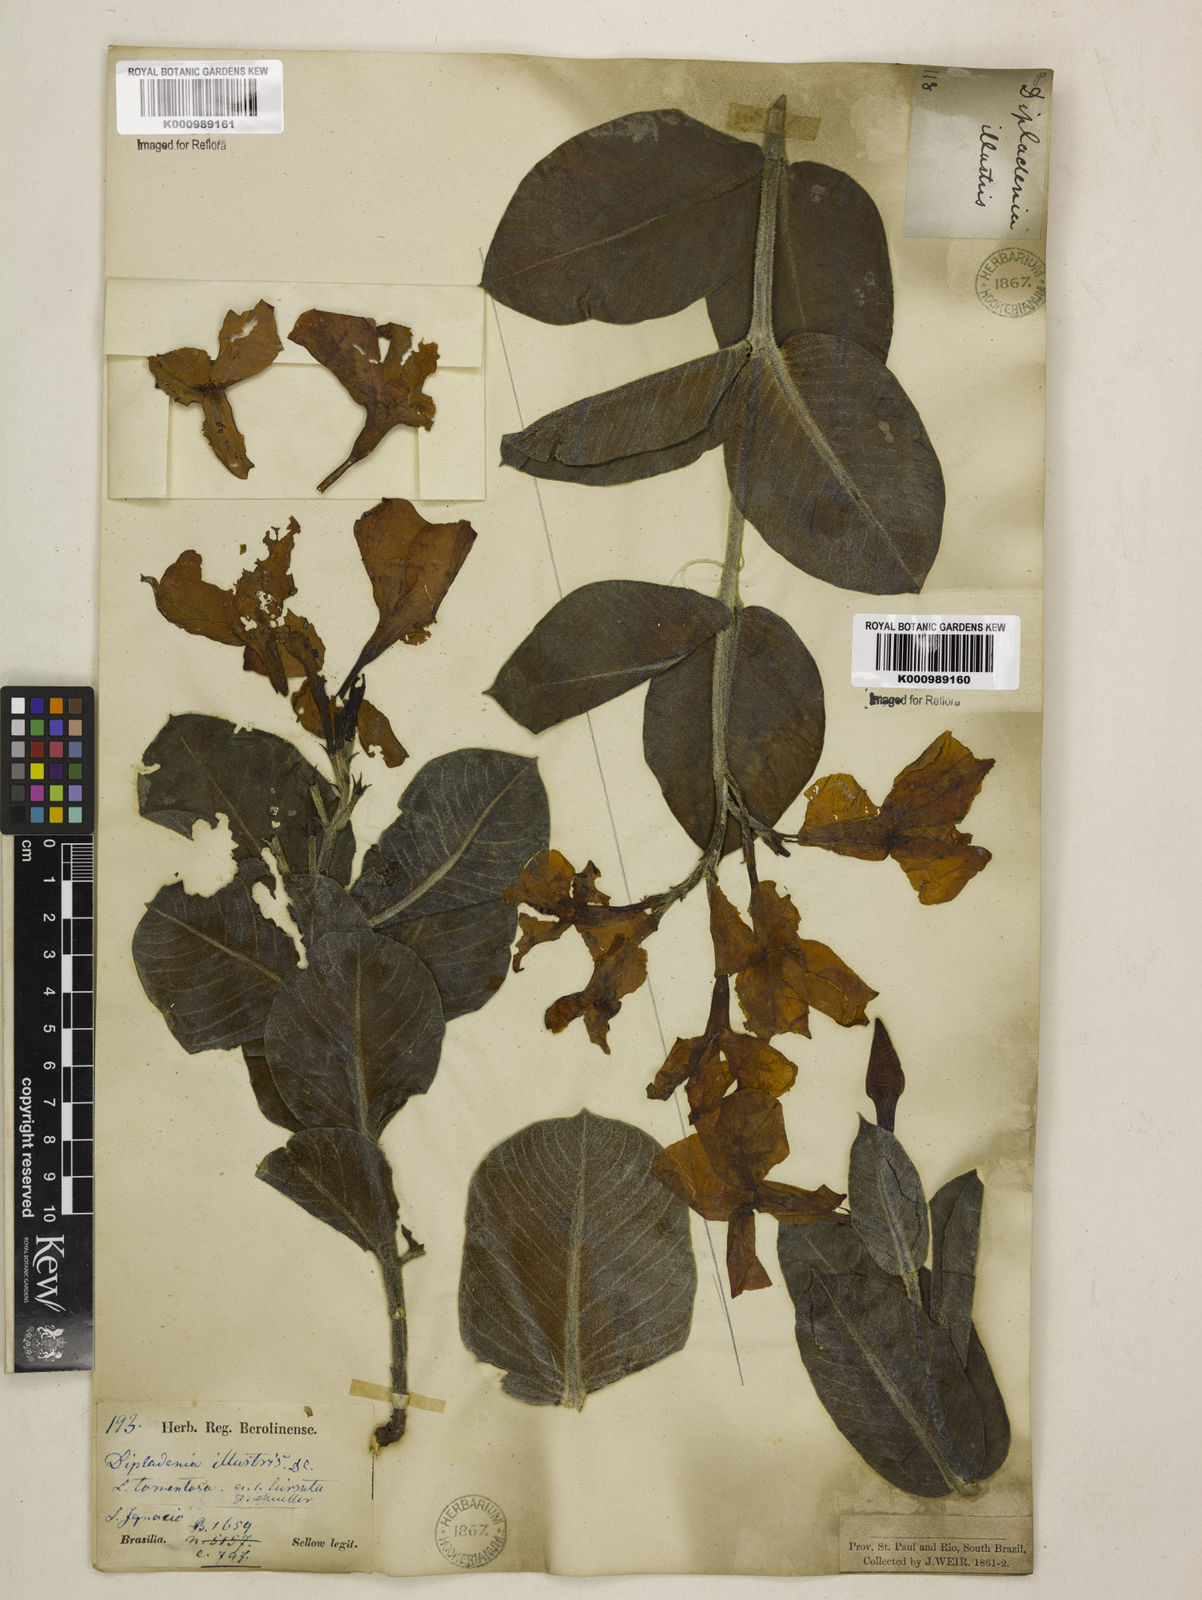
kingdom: Plantae
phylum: Tracheophyta
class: Magnoliopsida
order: Gentianales
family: Apocynaceae
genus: Mandevilla
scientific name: Mandevilla illustris
